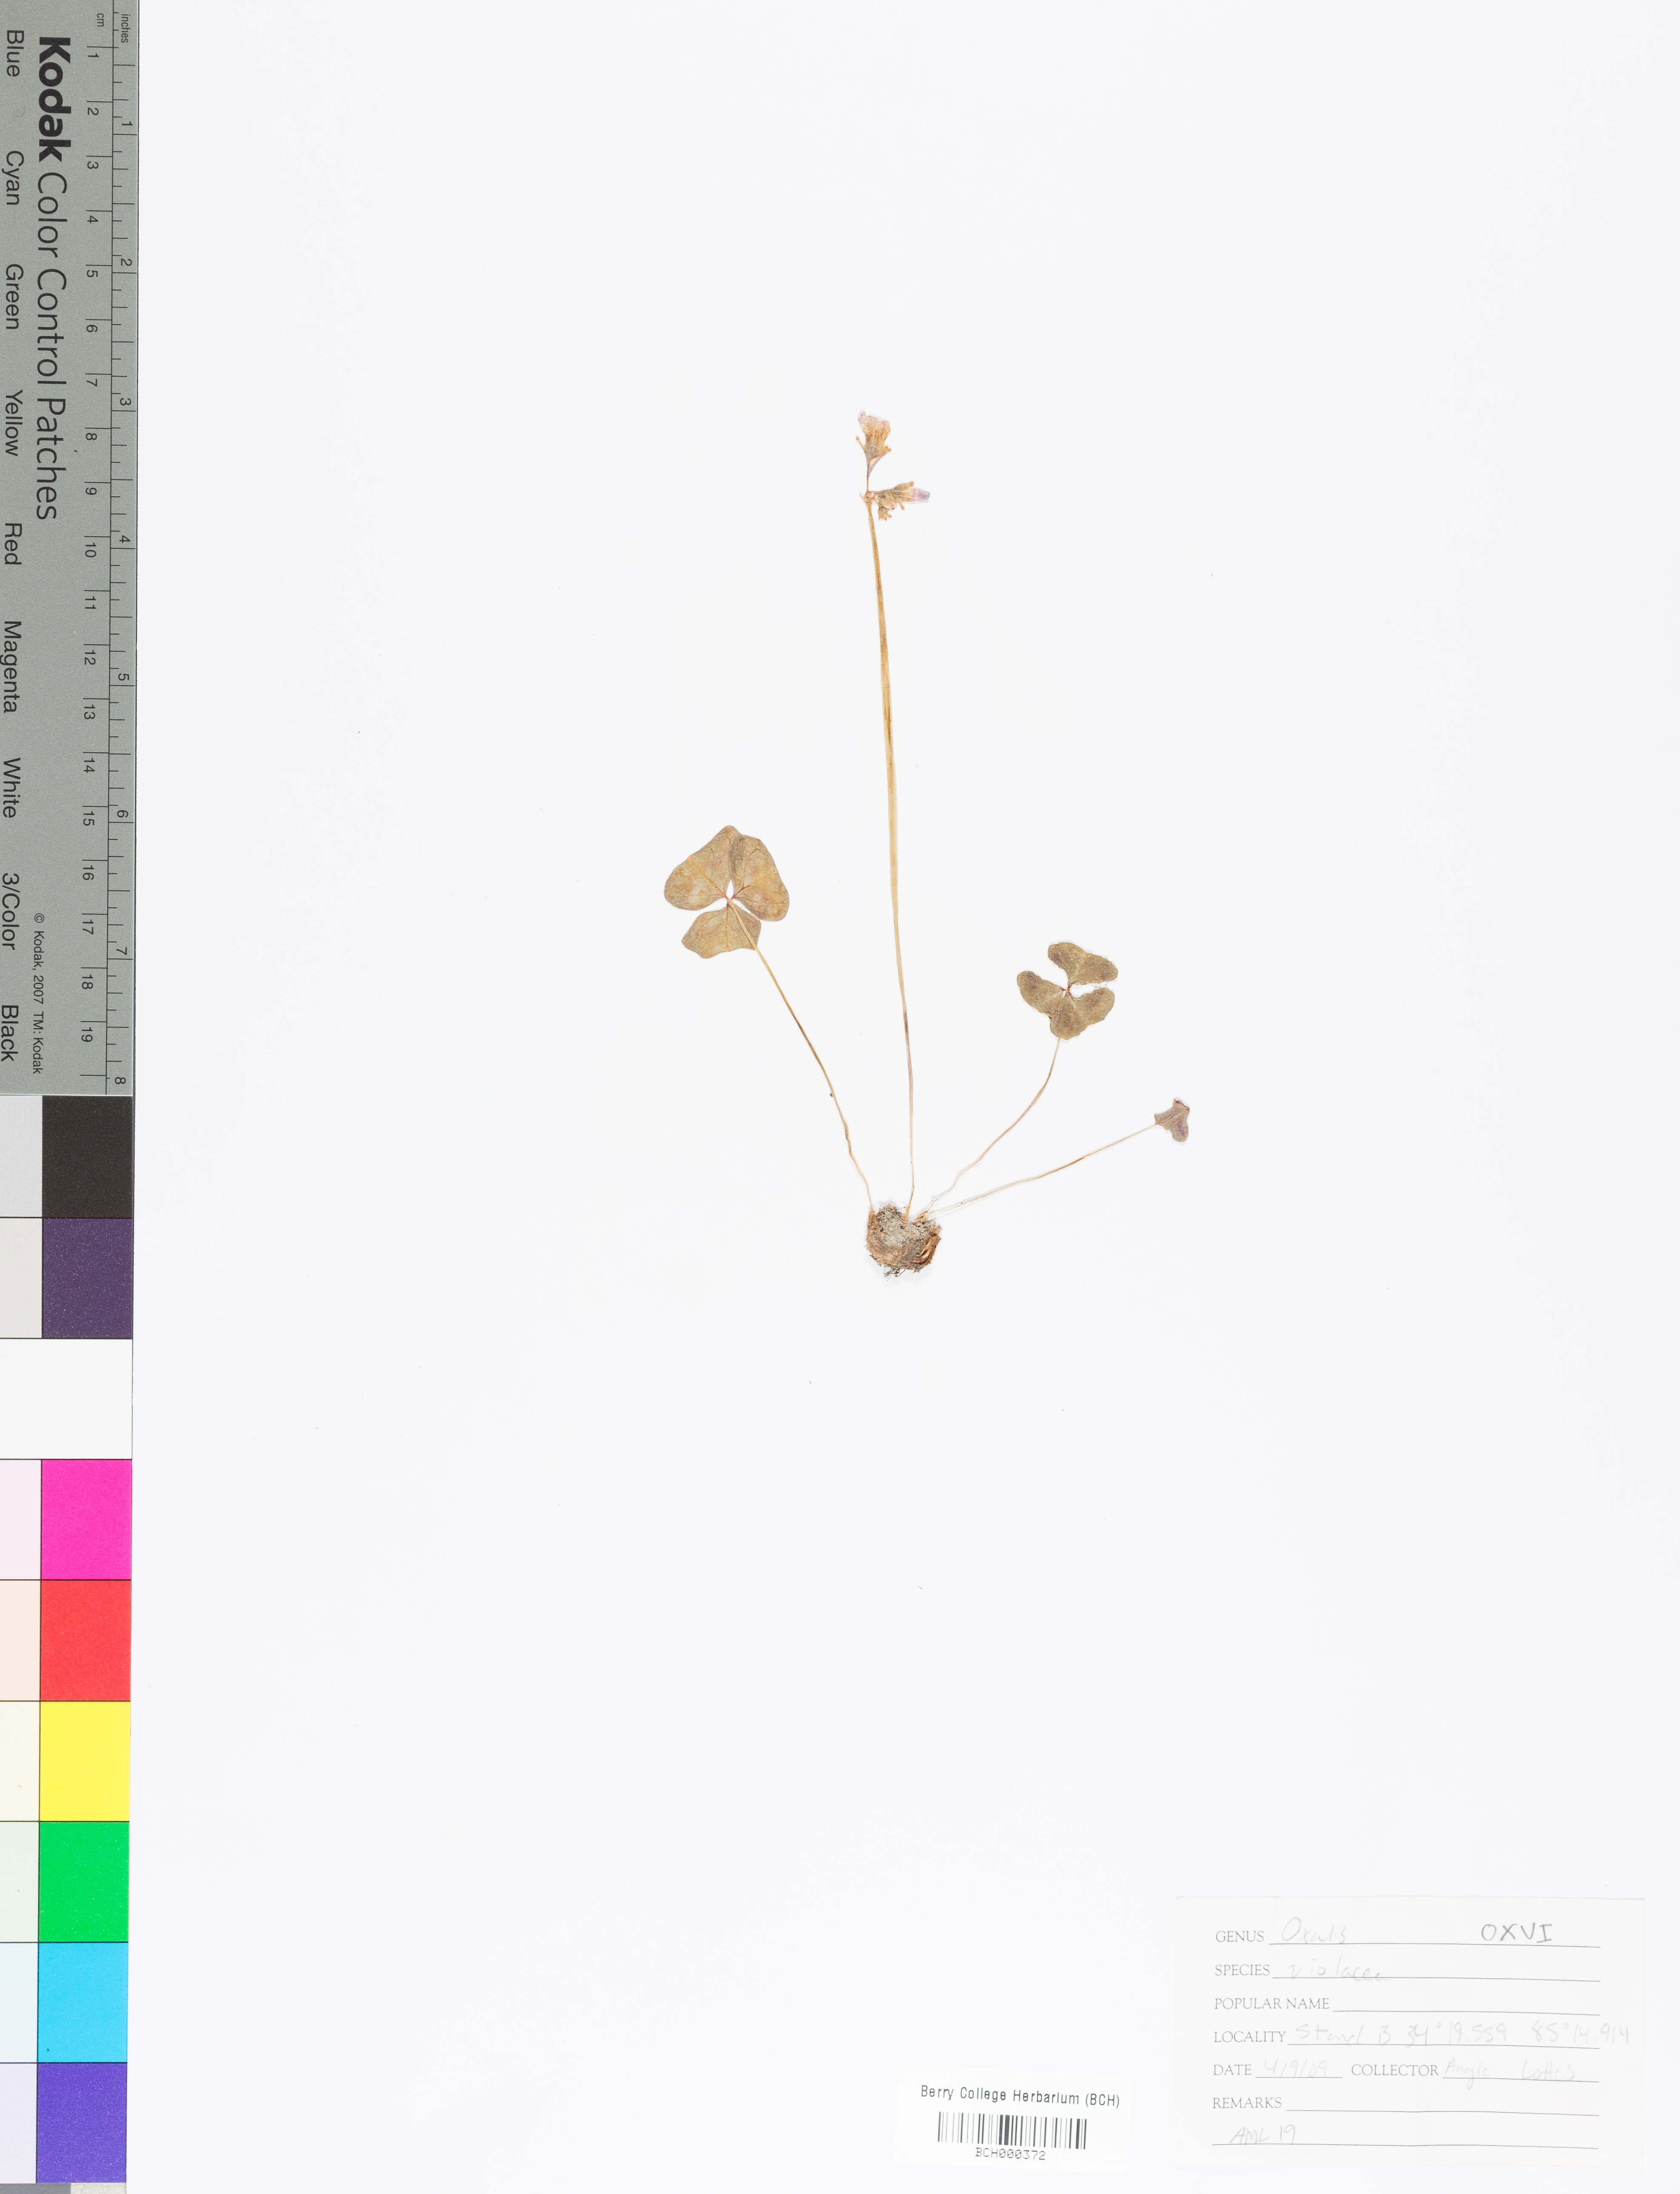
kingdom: Plantae
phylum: Tracheophyta
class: Magnoliopsida
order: Oxalidales
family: Oxalidaceae
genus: Oxalis
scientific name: Oxalis violacea
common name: Violet wood-sorrel
